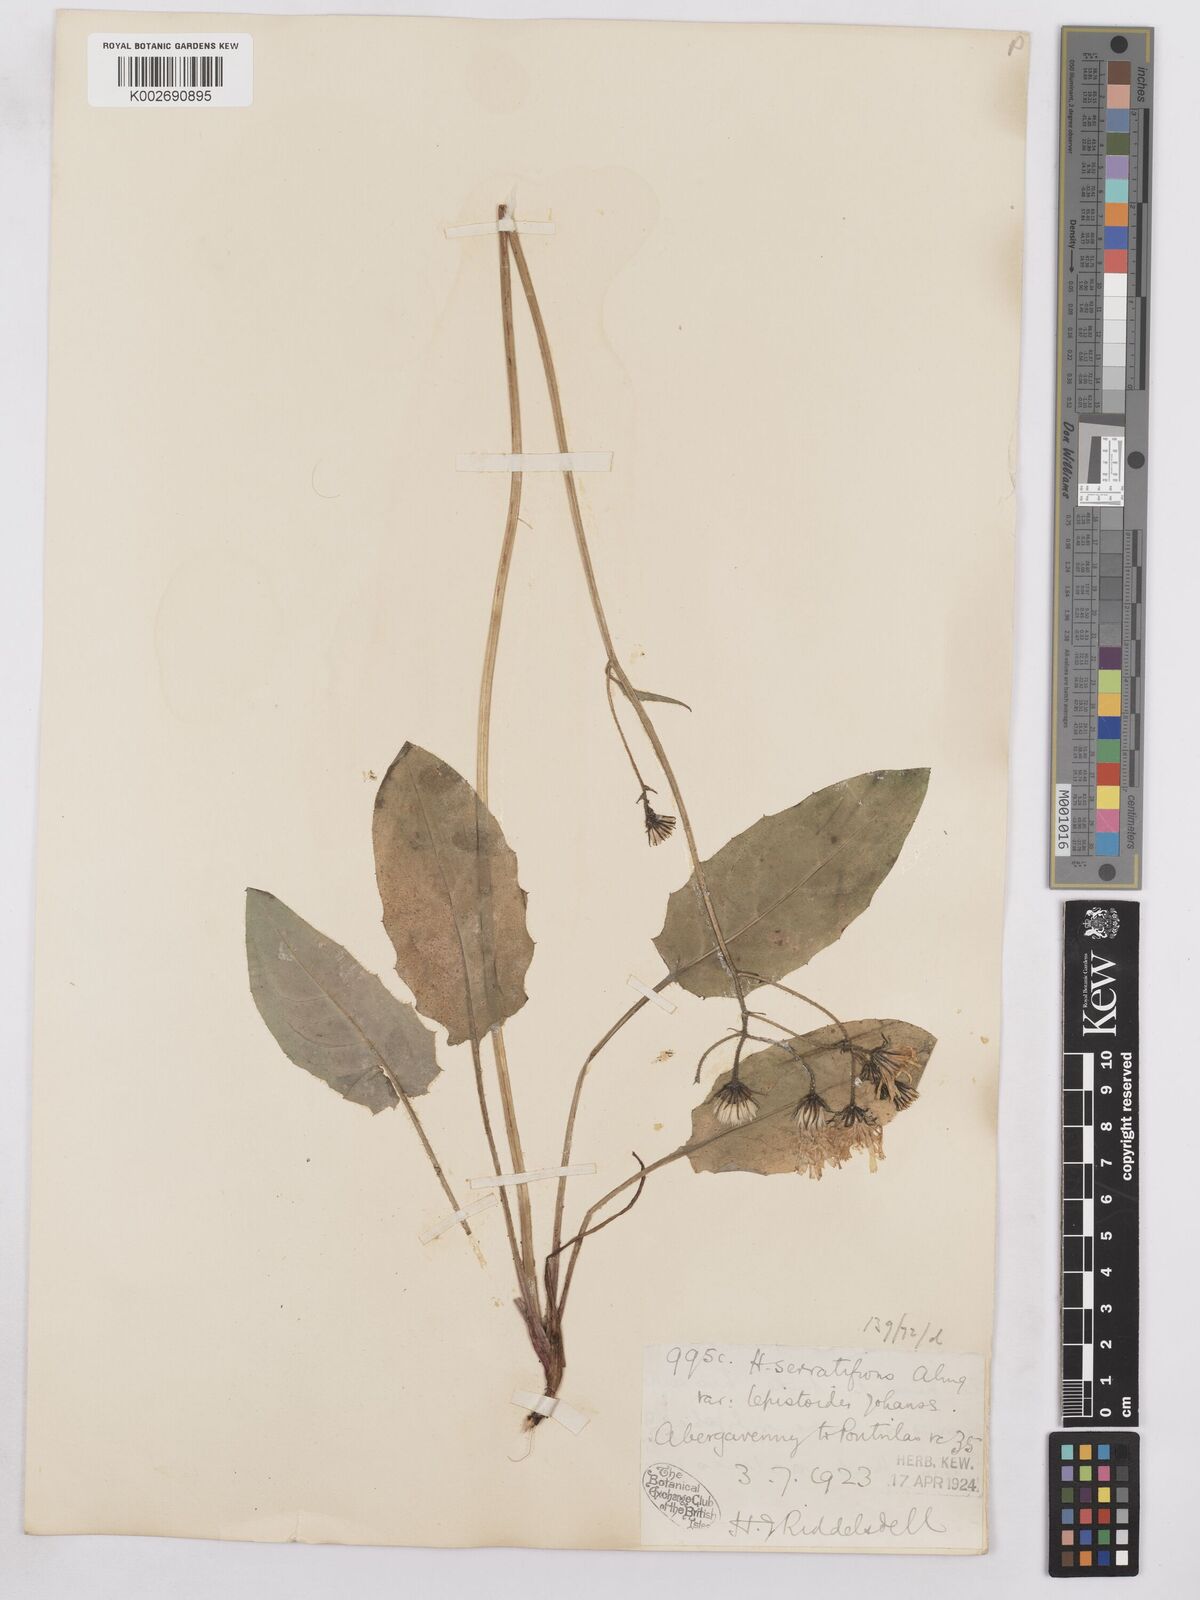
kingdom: Plantae
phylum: Tracheophyta
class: Magnoliopsida
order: Asterales
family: Asteraceae
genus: Hieracium
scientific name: Hieracium murorum
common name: Wall hawkweed
